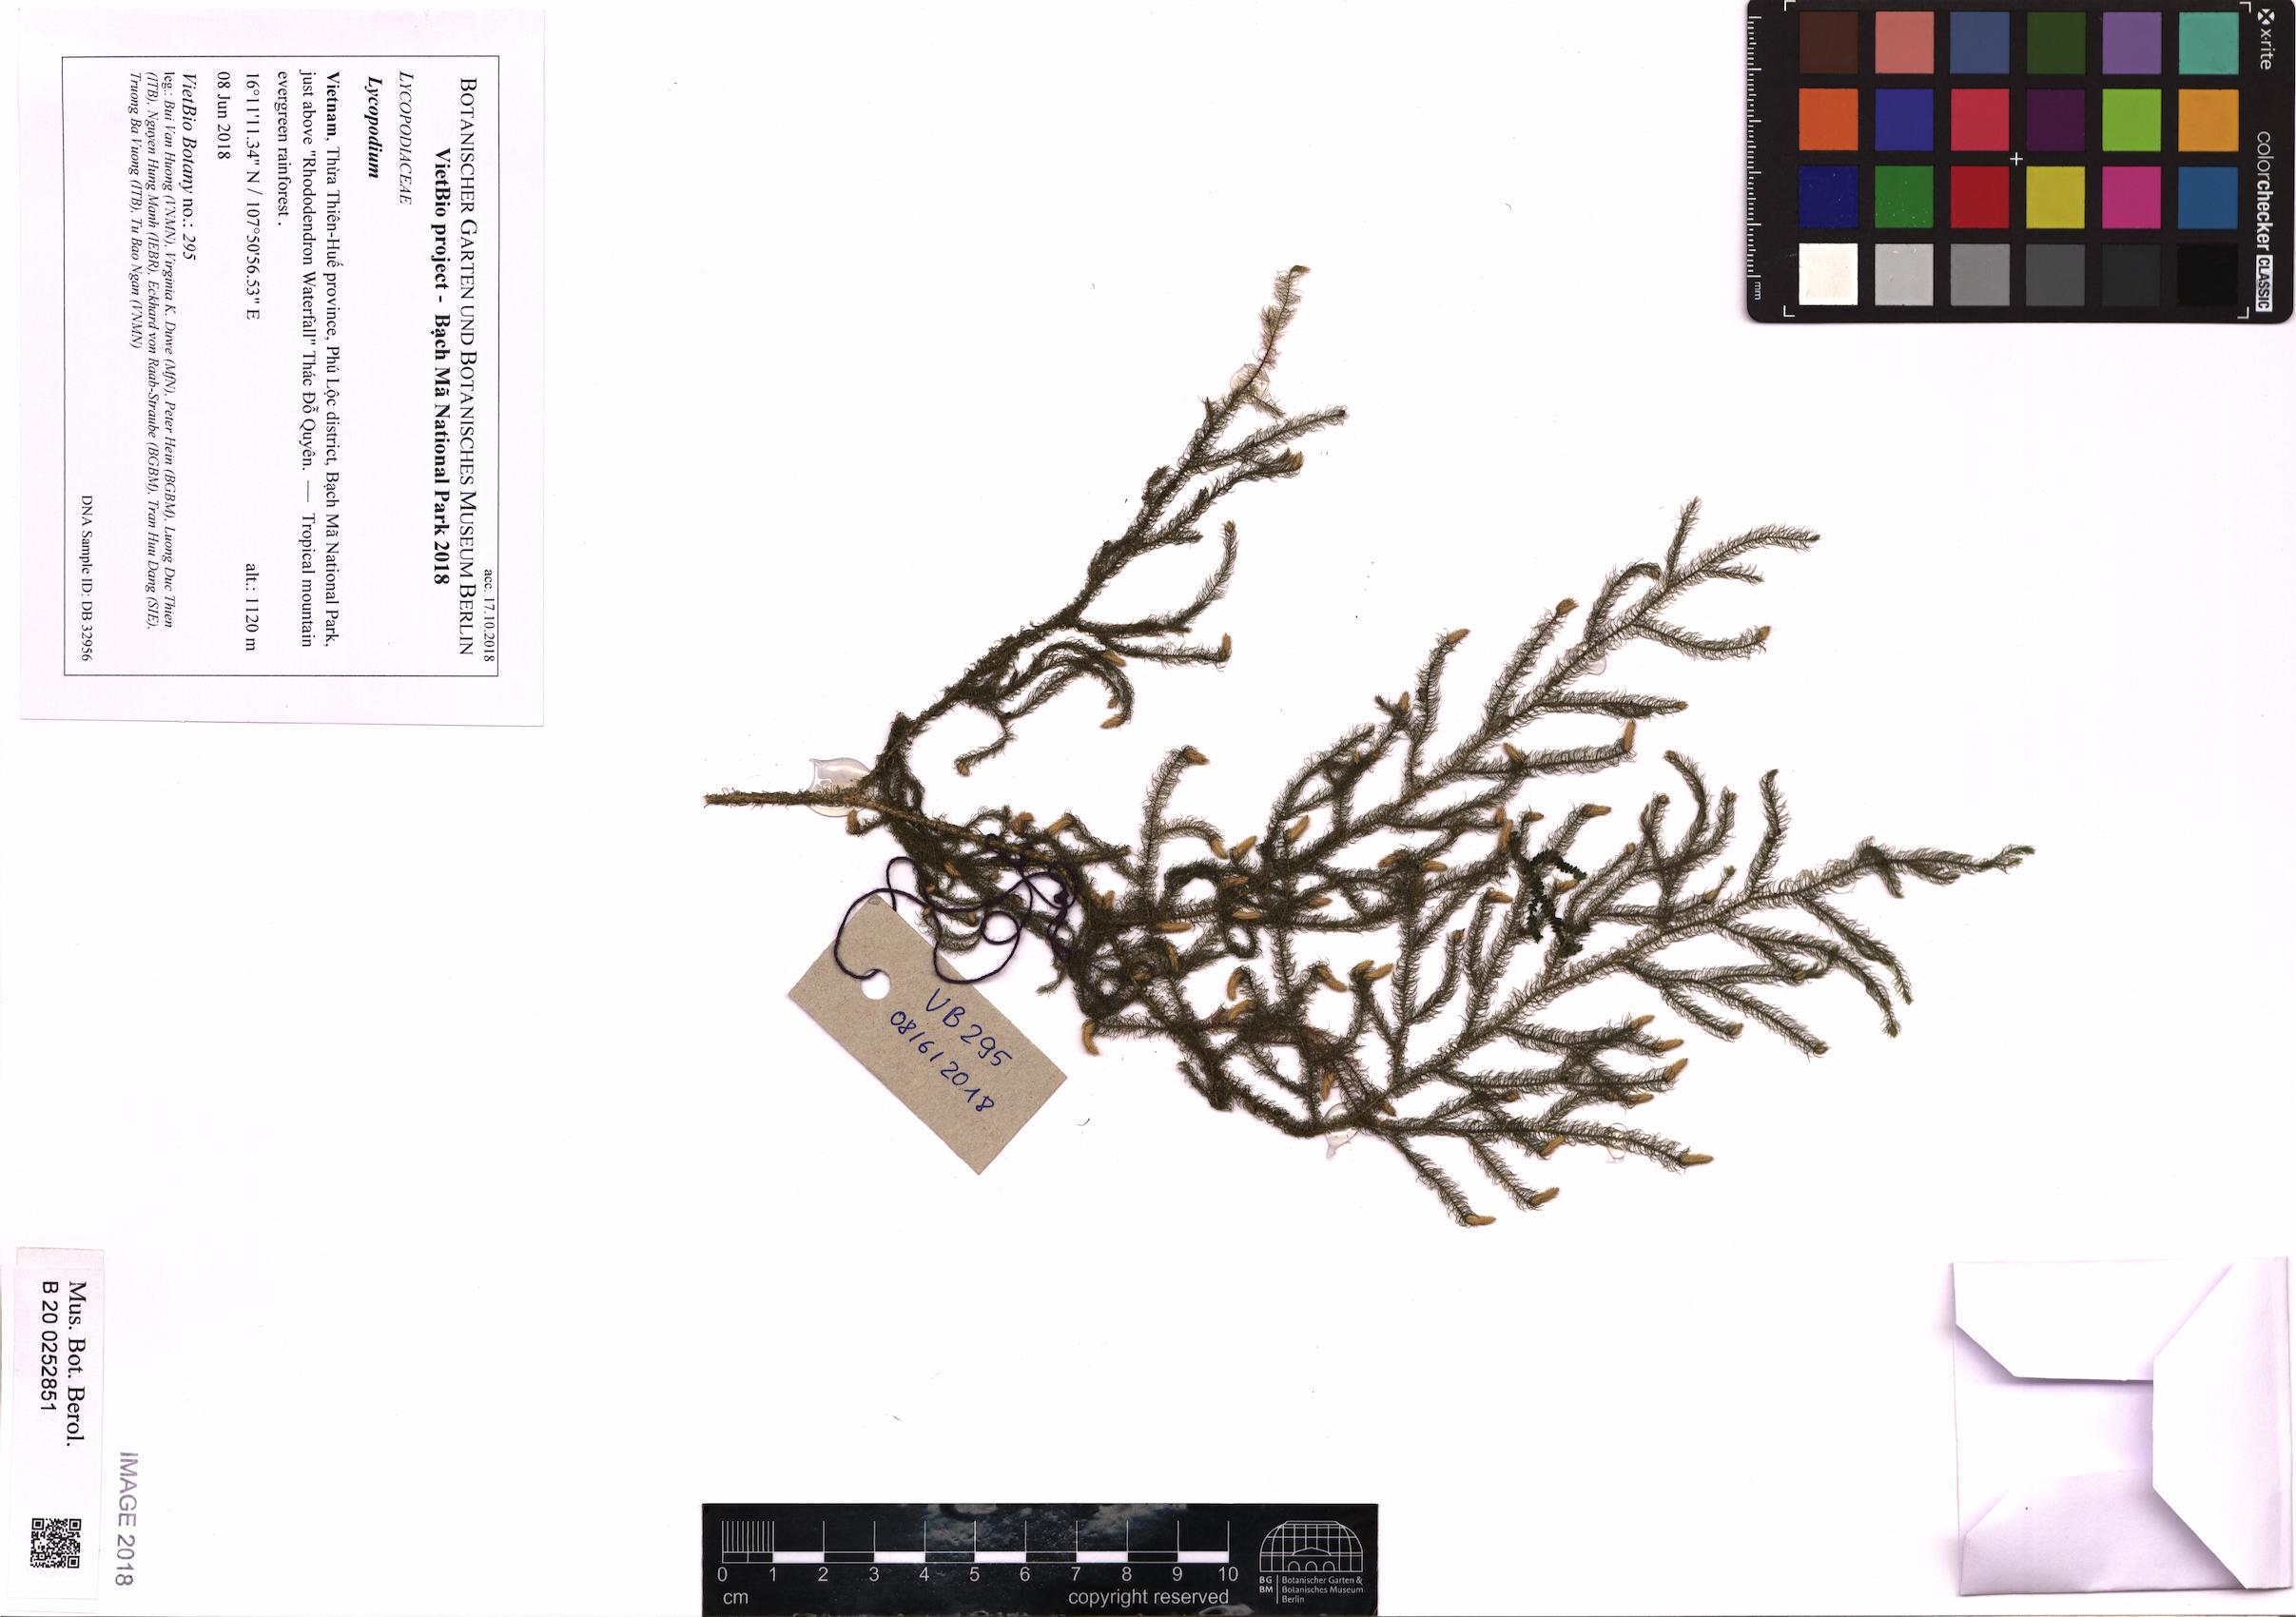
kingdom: Plantae
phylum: Tracheophyta
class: Lycopodiopsida
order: Lycopodiales
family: Lycopodiaceae
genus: Lycopodium
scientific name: Lycopodium
